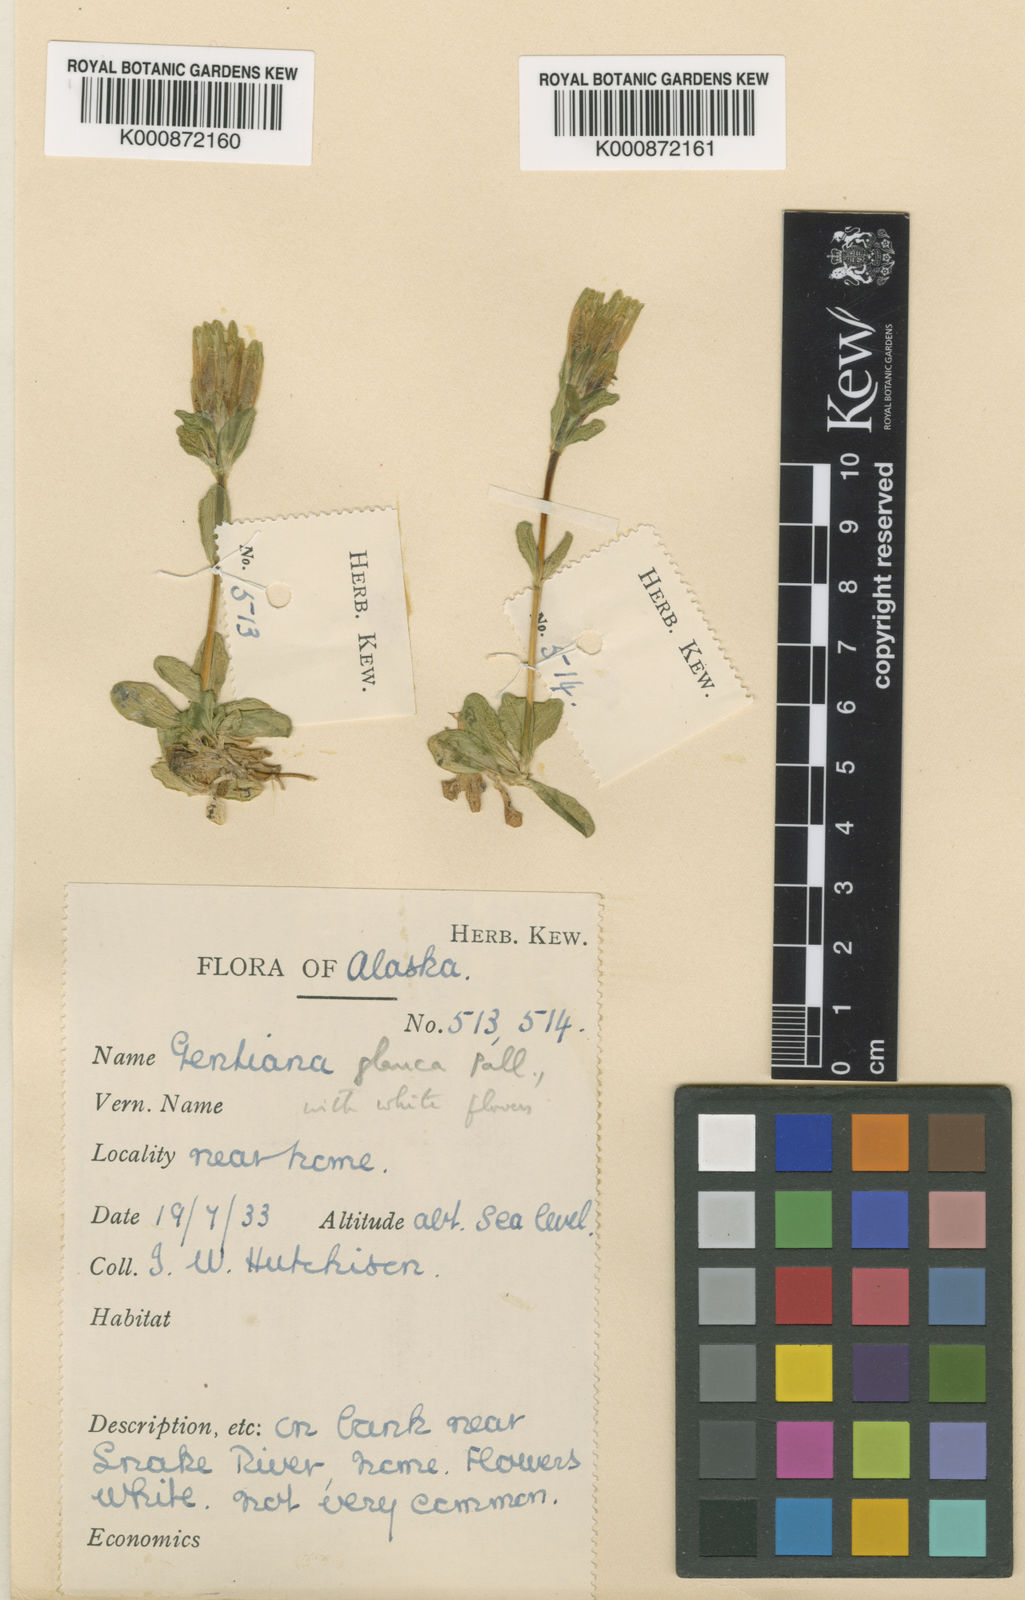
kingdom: Plantae
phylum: Tracheophyta
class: Magnoliopsida
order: Gentianales
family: Gentianaceae
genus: Gentiana
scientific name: Gentiana glauca
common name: Alpine gentian
